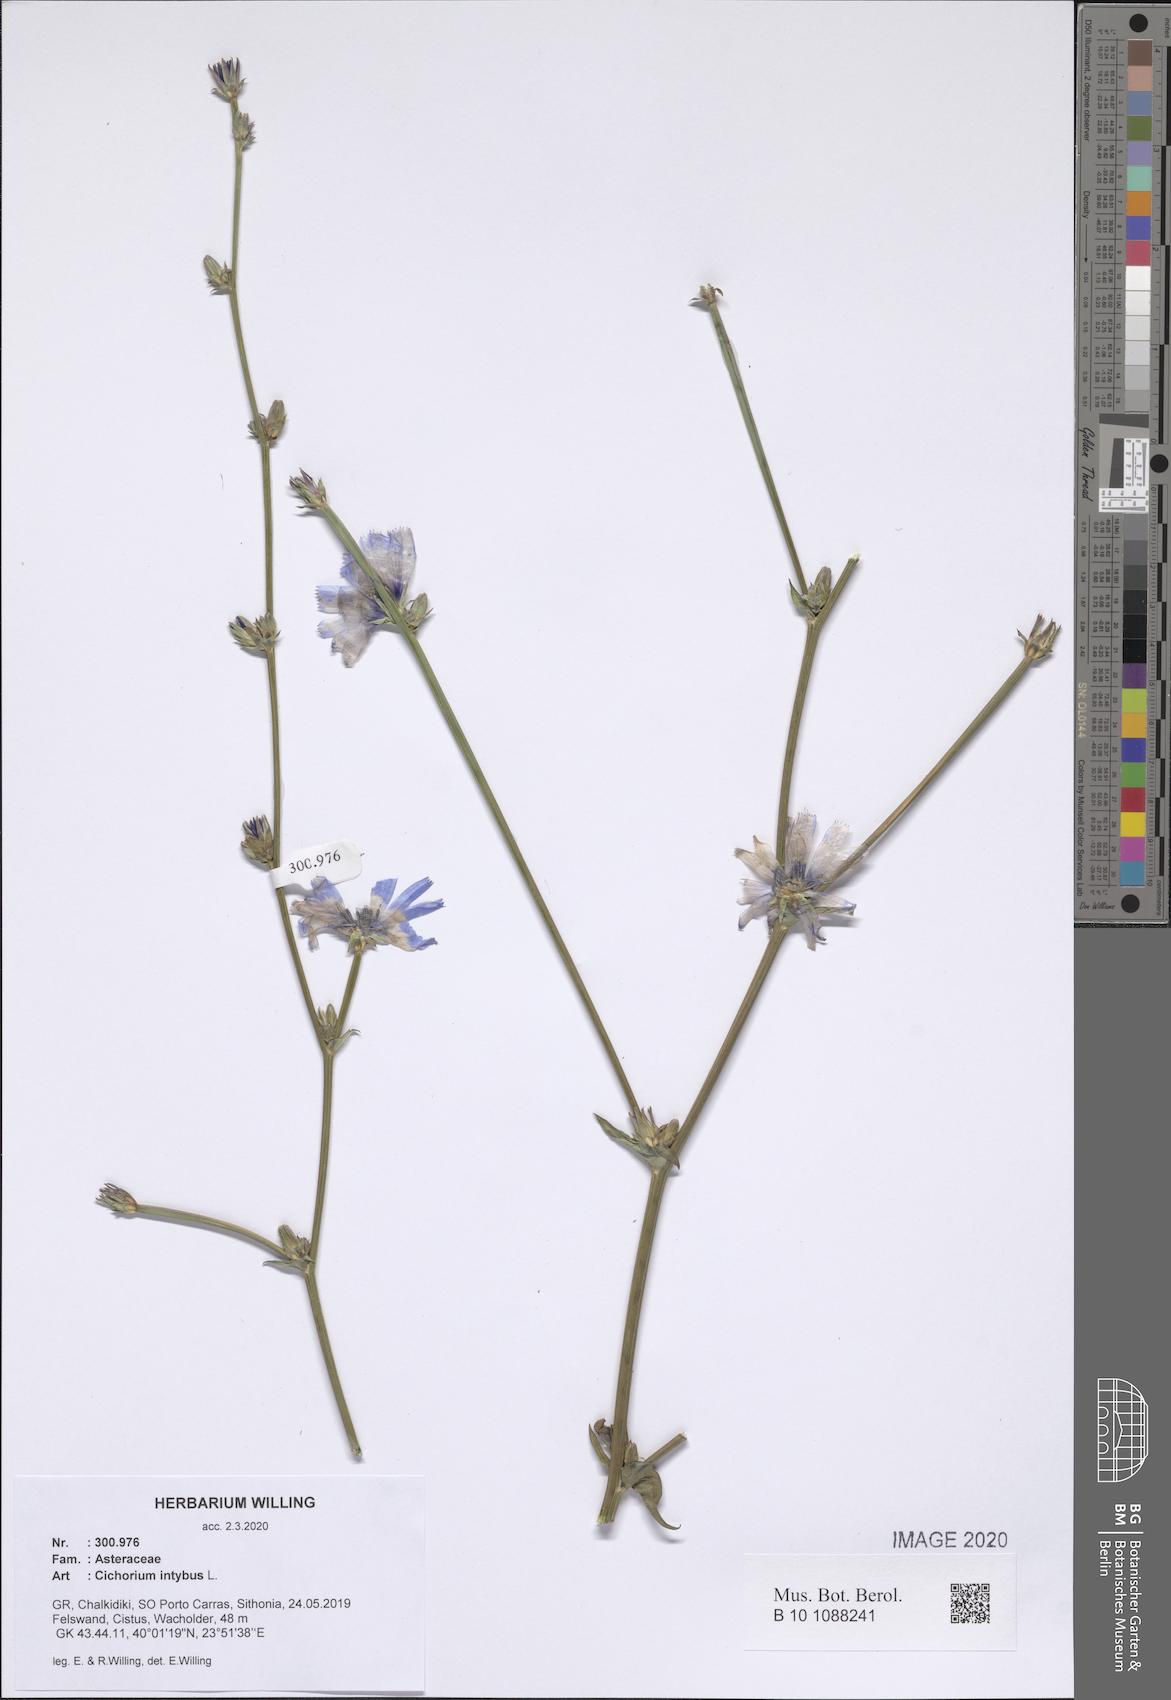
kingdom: Plantae
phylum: Tracheophyta
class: Magnoliopsida
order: Asterales
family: Asteraceae
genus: Cichorium
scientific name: Cichorium intybus
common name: Chicory
